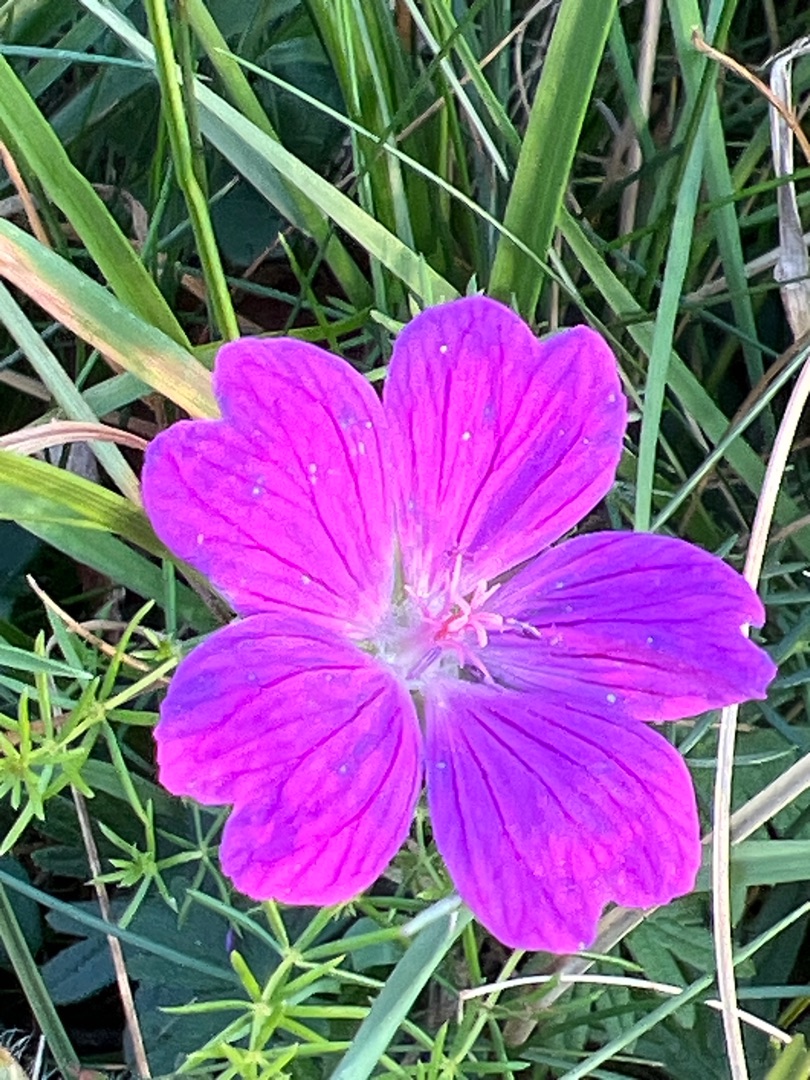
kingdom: Plantae
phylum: Tracheophyta
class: Magnoliopsida
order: Geraniales
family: Geraniaceae
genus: Geranium
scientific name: Geranium sanguineum
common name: Blodrød storkenæb
